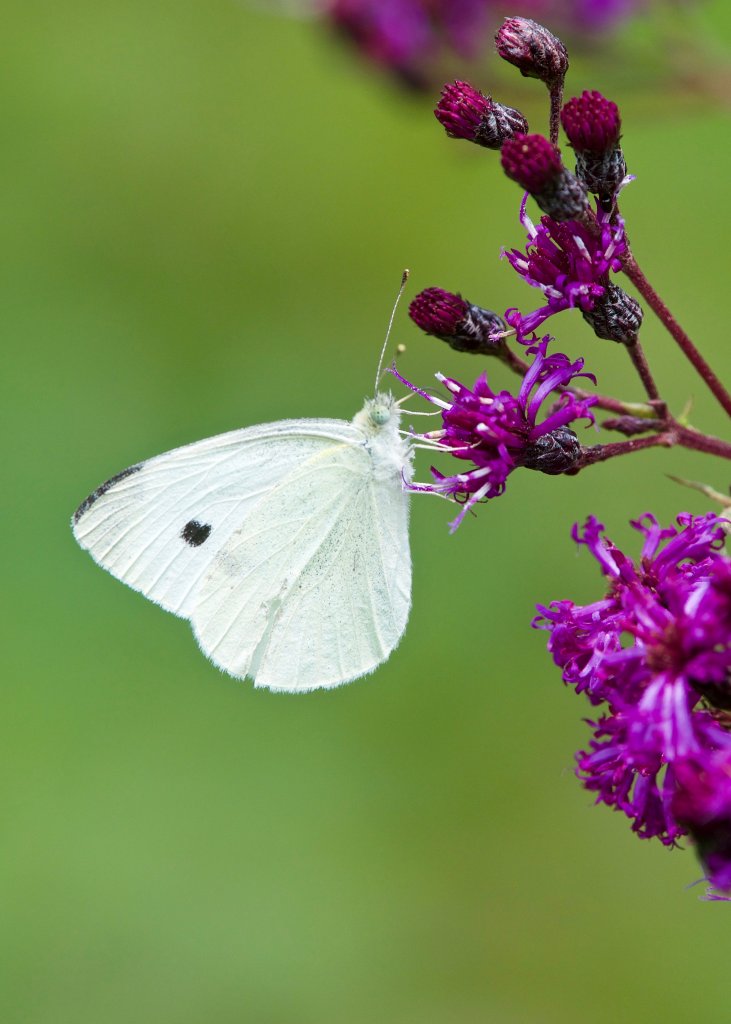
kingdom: Animalia
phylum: Arthropoda
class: Insecta
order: Lepidoptera
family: Pieridae
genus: Pieris
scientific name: Pieris rapae
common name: Cabbage White
